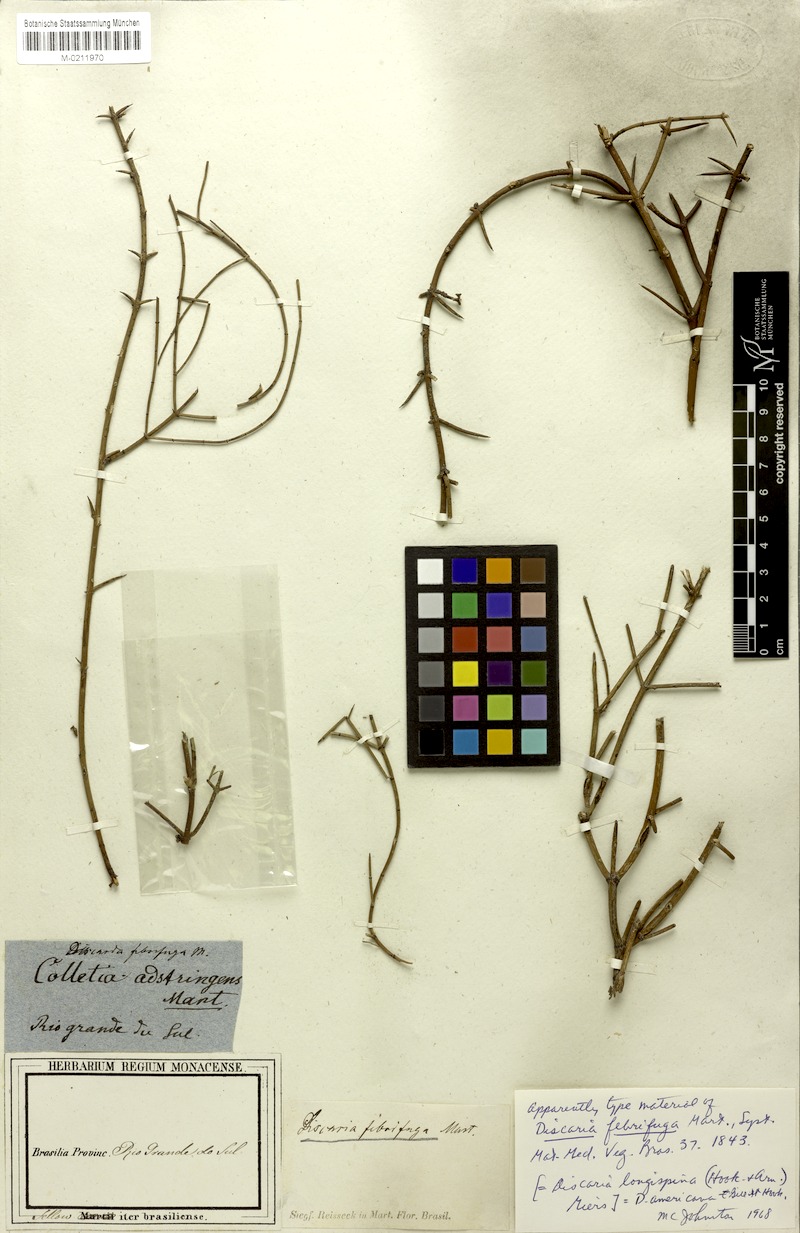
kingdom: Plantae
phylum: Tracheophyta
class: Magnoliopsida
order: Rosales
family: Rhamnaceae
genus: Discaria
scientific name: Discaria americana
